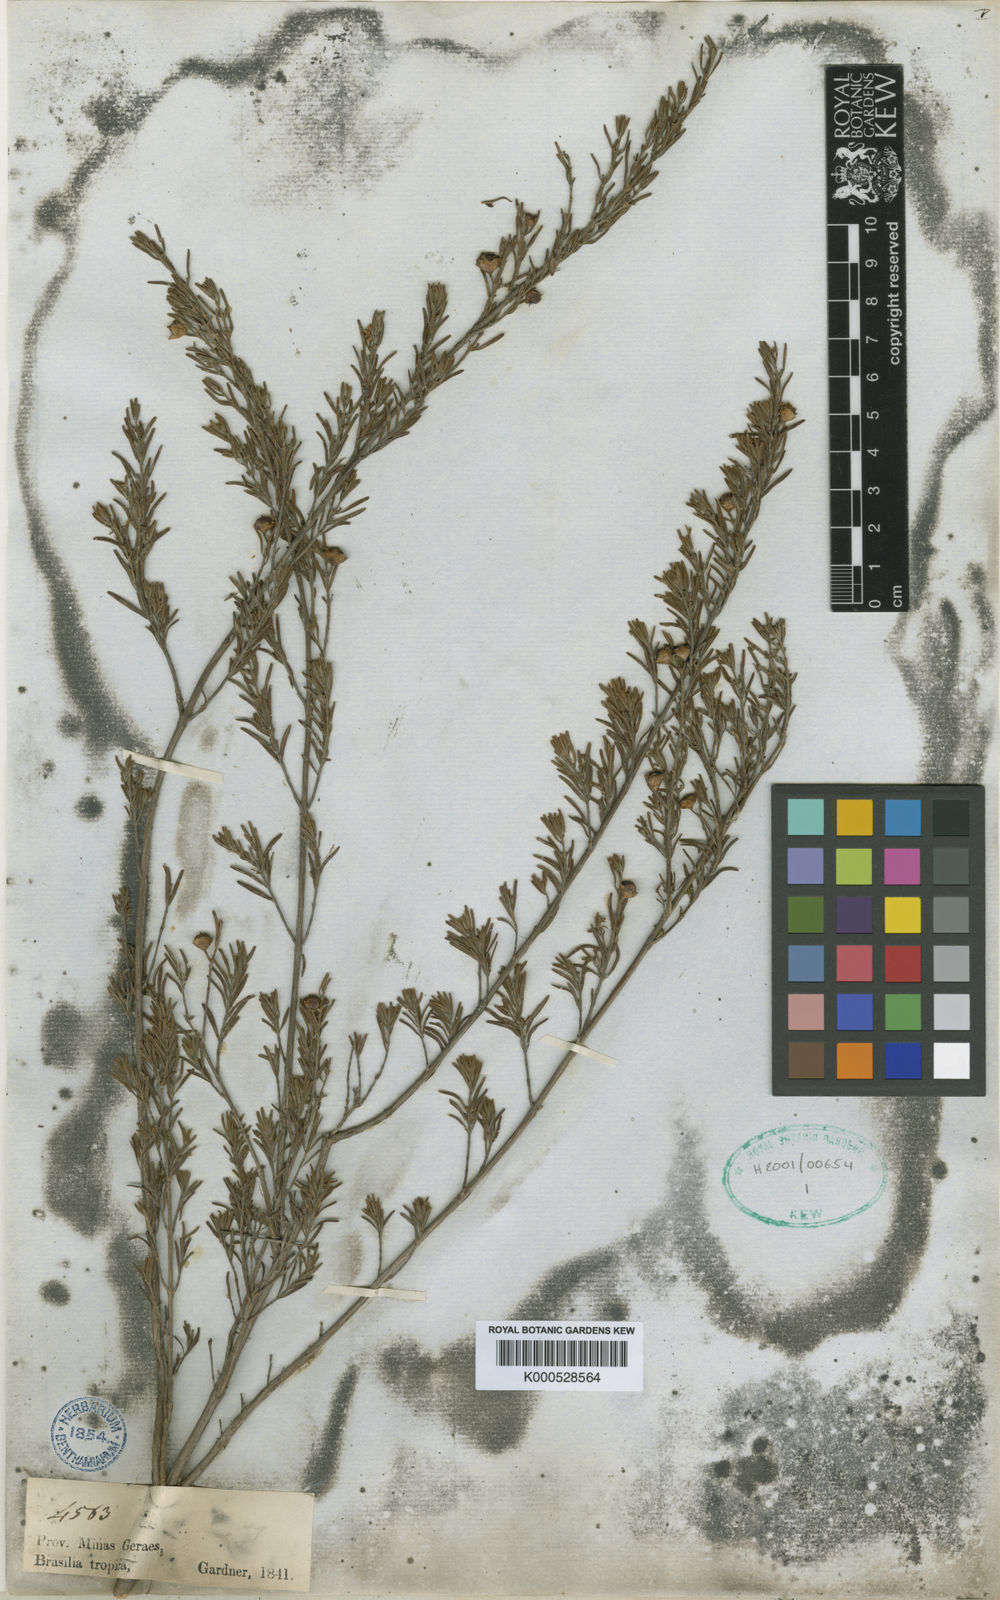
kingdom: Plantae
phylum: Tracheophyta
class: Magnoliopsida
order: Myrtales
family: Lythraceae
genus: Diplusodon
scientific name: Diplusodon rosmarinifolius
